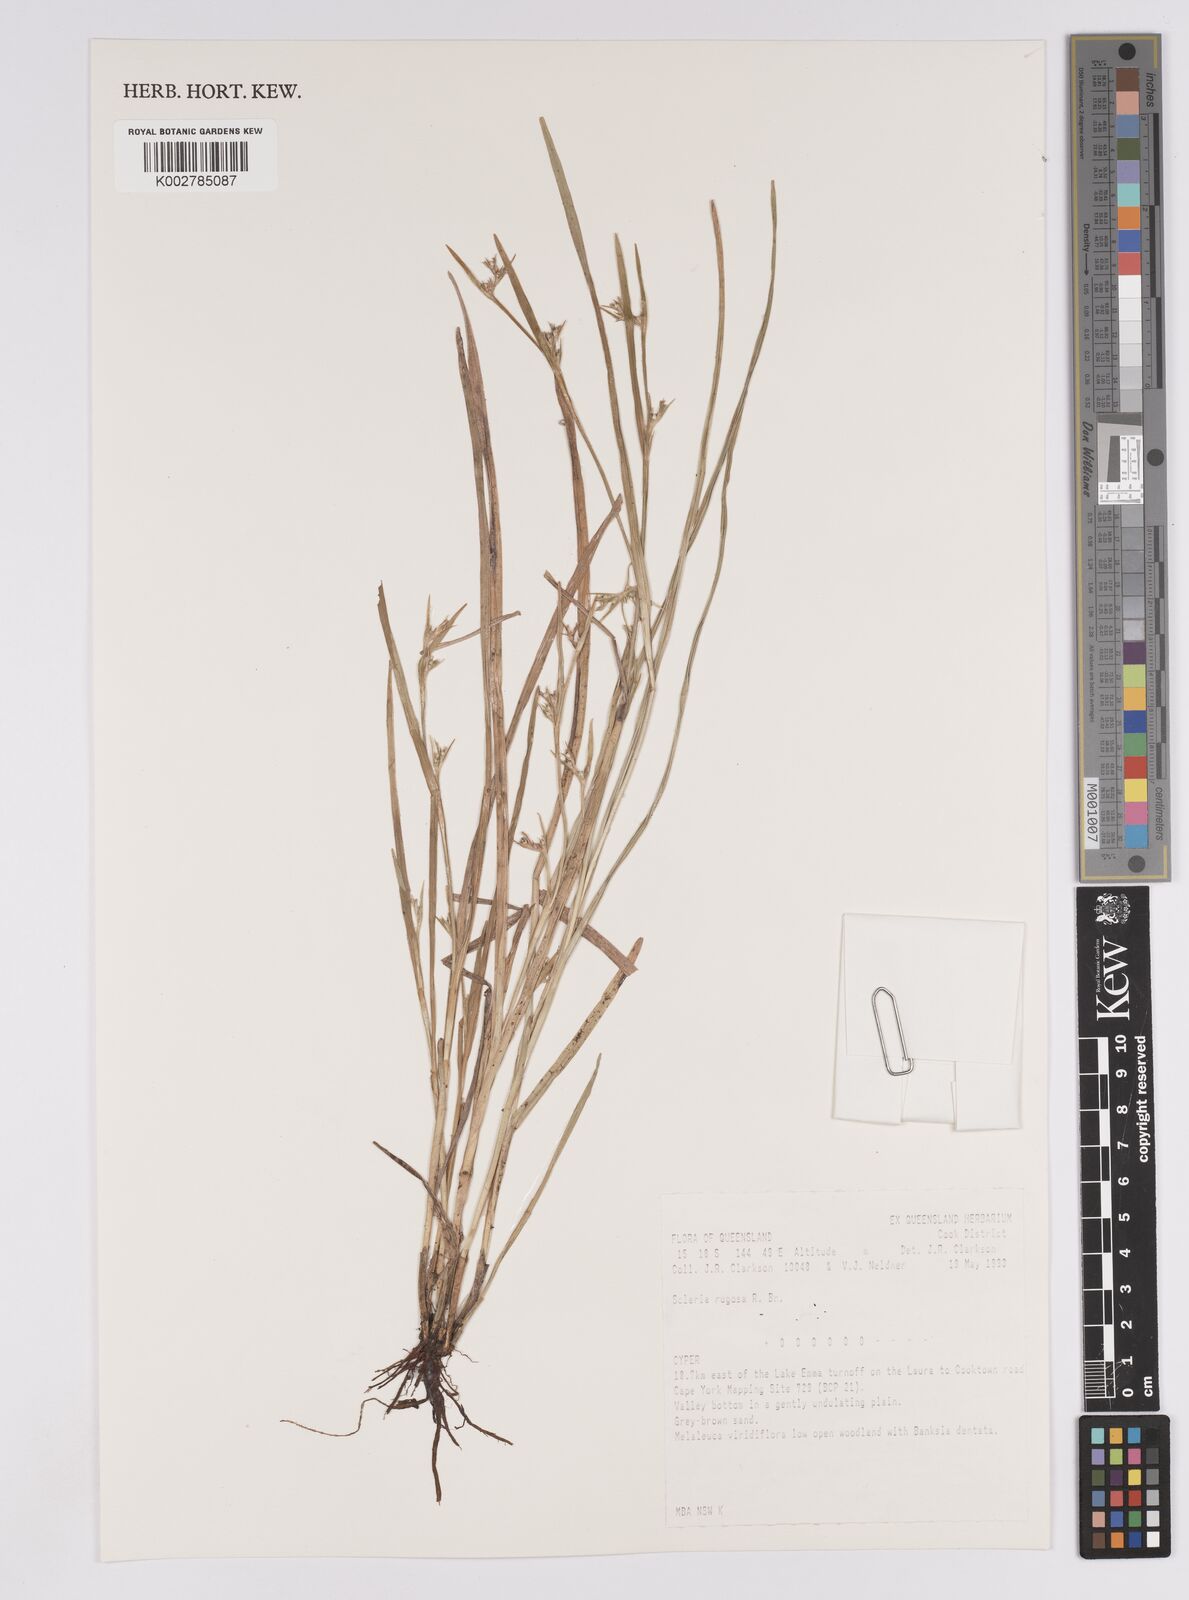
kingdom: Plantae
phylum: Tracheophyta
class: Liliopsida
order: Poales
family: Cyperaceae
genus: Scleria
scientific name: Scleria rugosa
